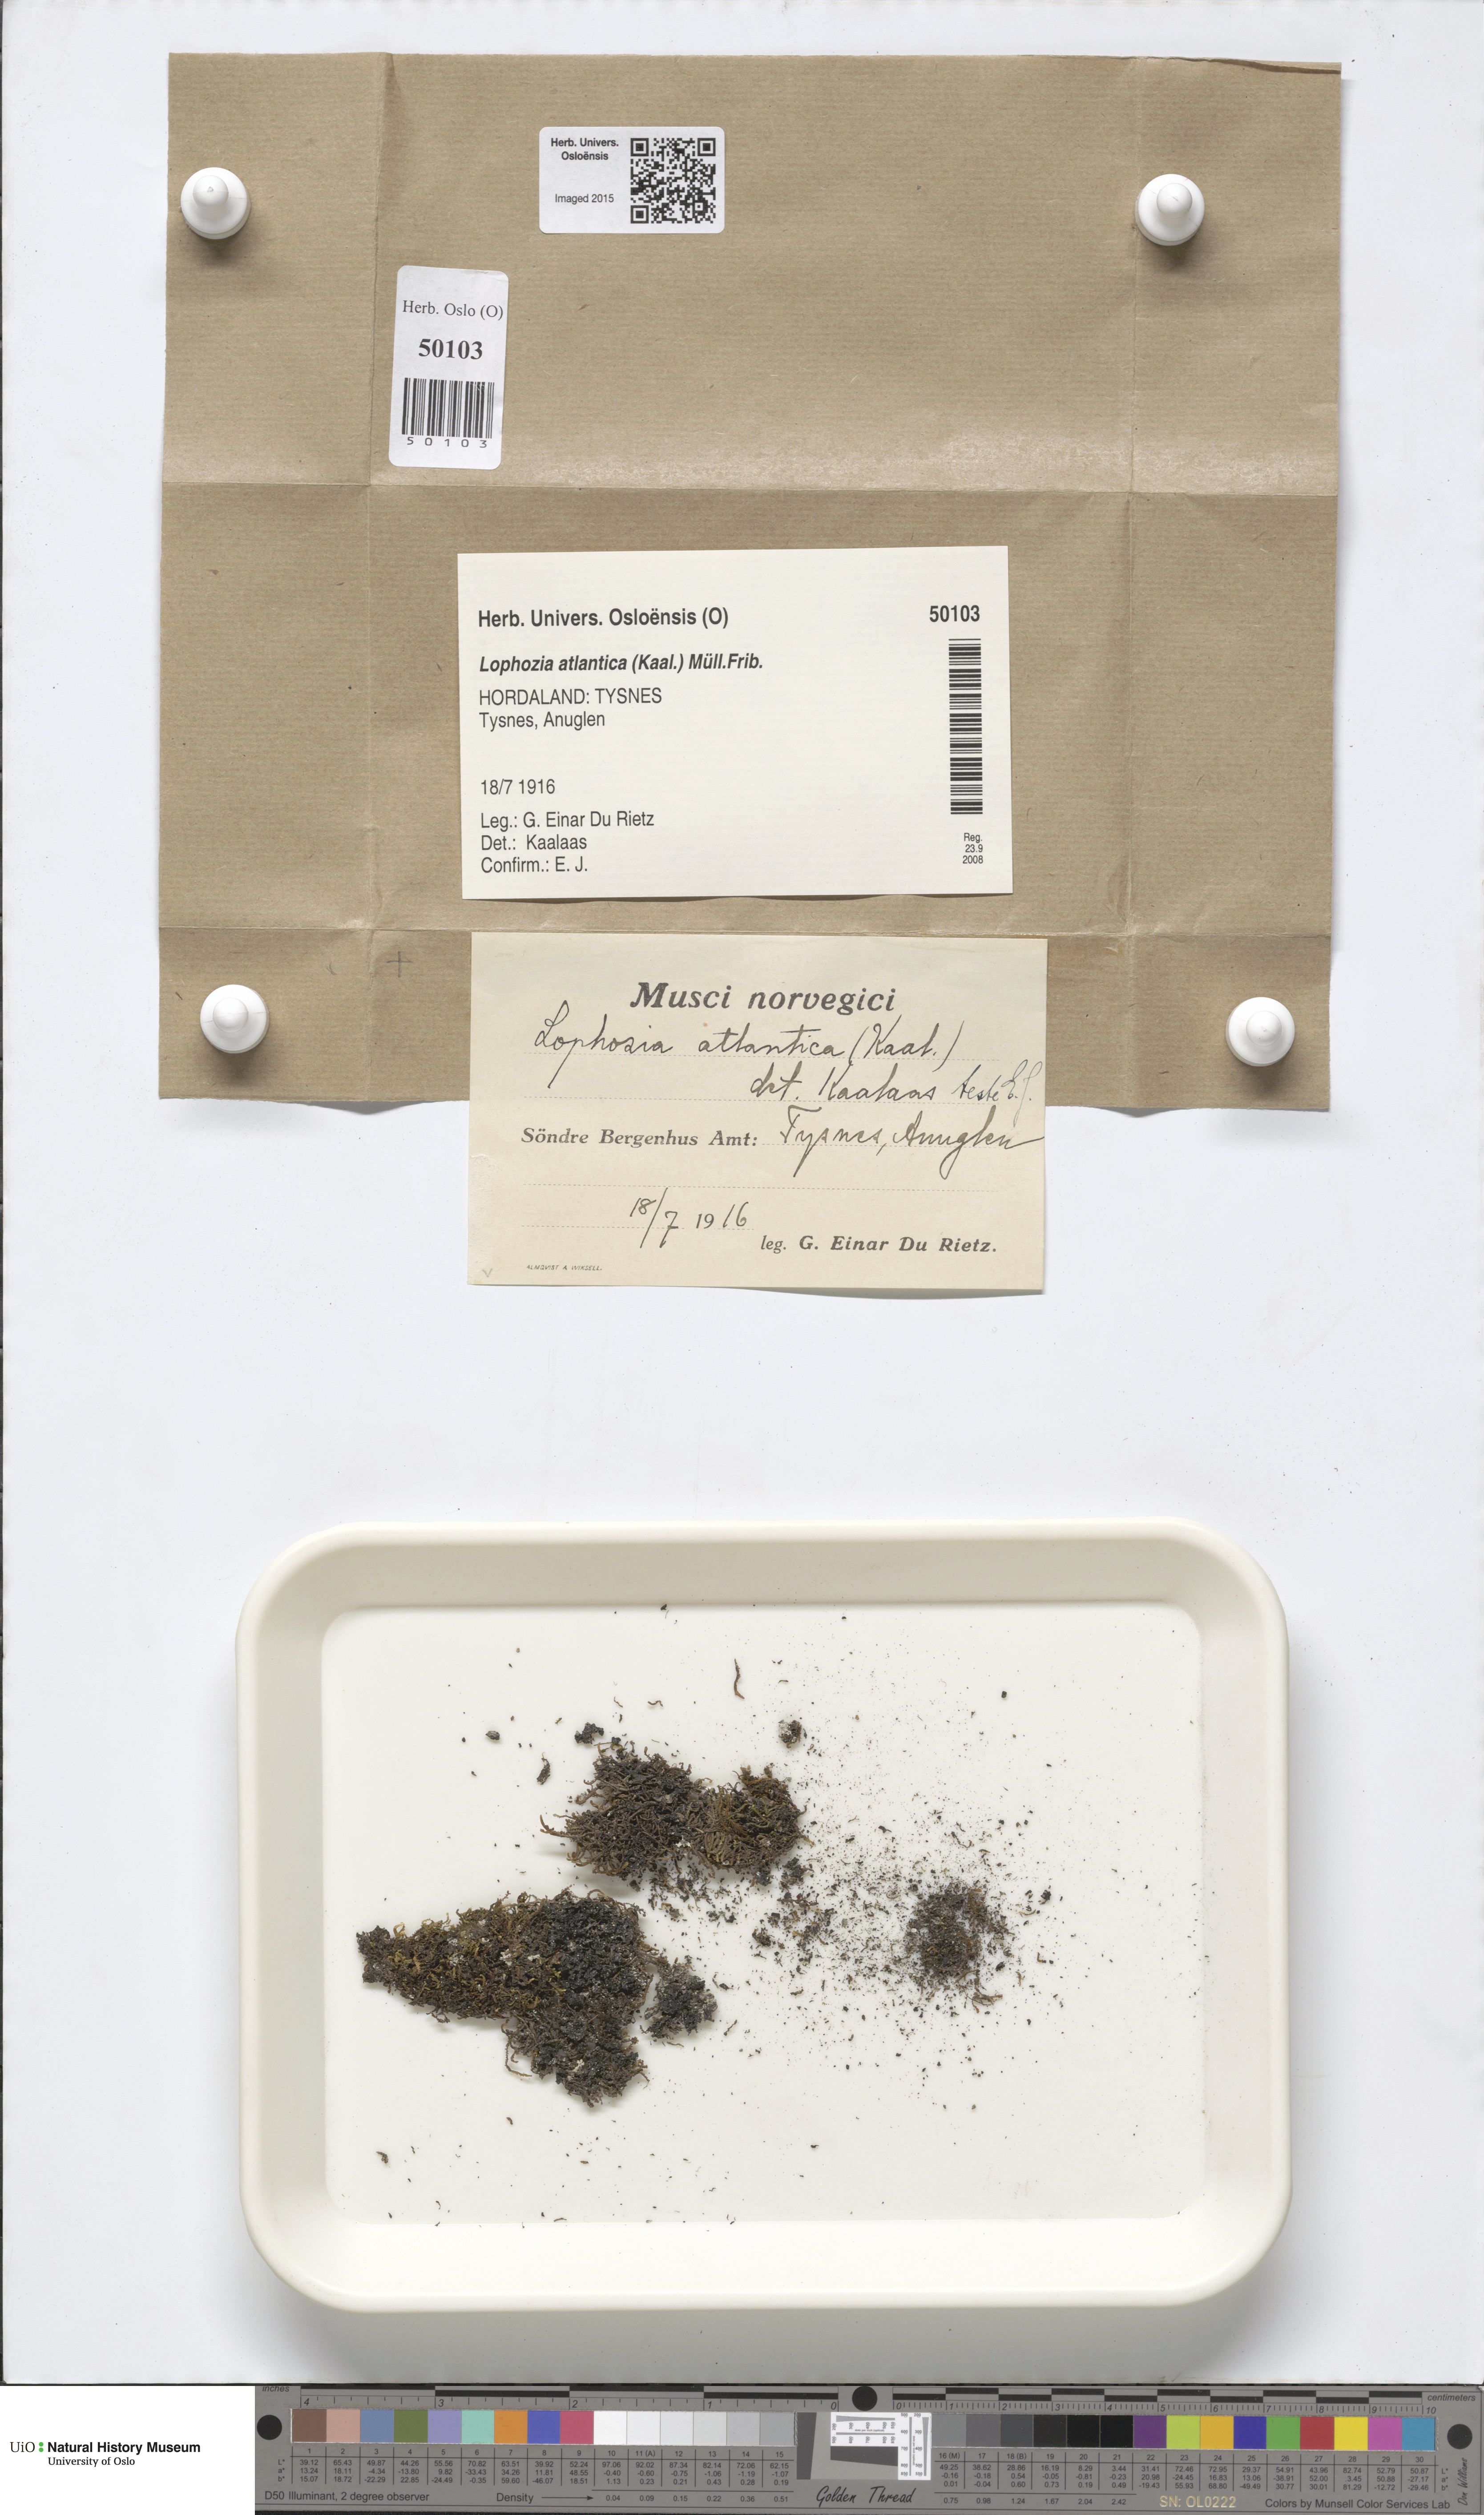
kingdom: Plantae
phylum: Marchantiophyta
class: Jungermanniopsida
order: Jungermanniales
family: Anastrophyllaceae
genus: Orthocaulis
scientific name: Orthocaulis atlanticus
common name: Atlantic pawwort
